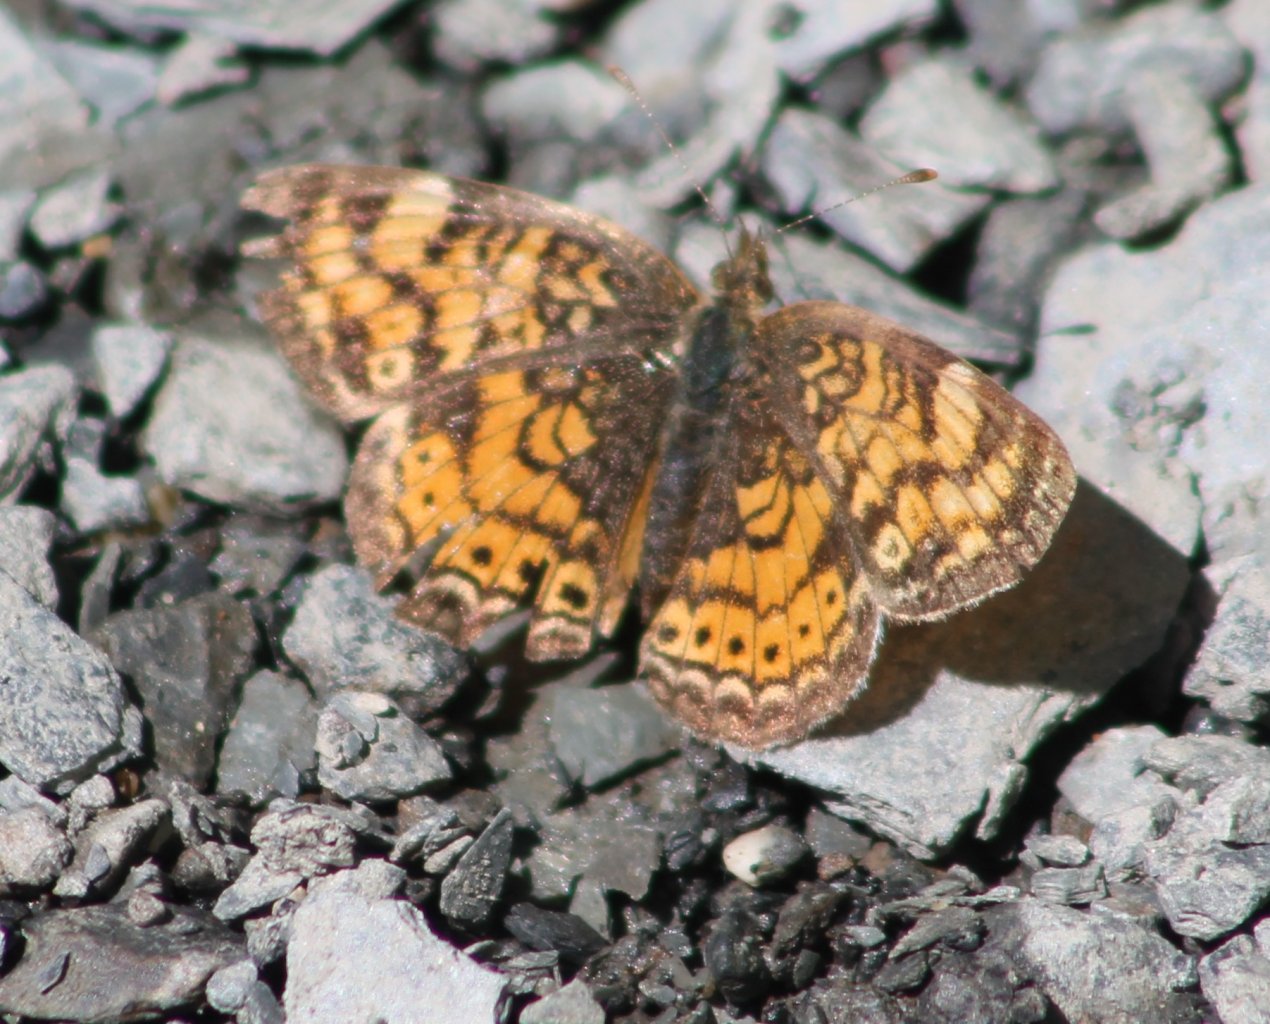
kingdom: Animalia
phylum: Arthropoda
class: Insecta
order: Lepidoptera
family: Nymphalidae
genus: Phyciodes
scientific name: Phyciodes tharos
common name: Pearl Crescent
